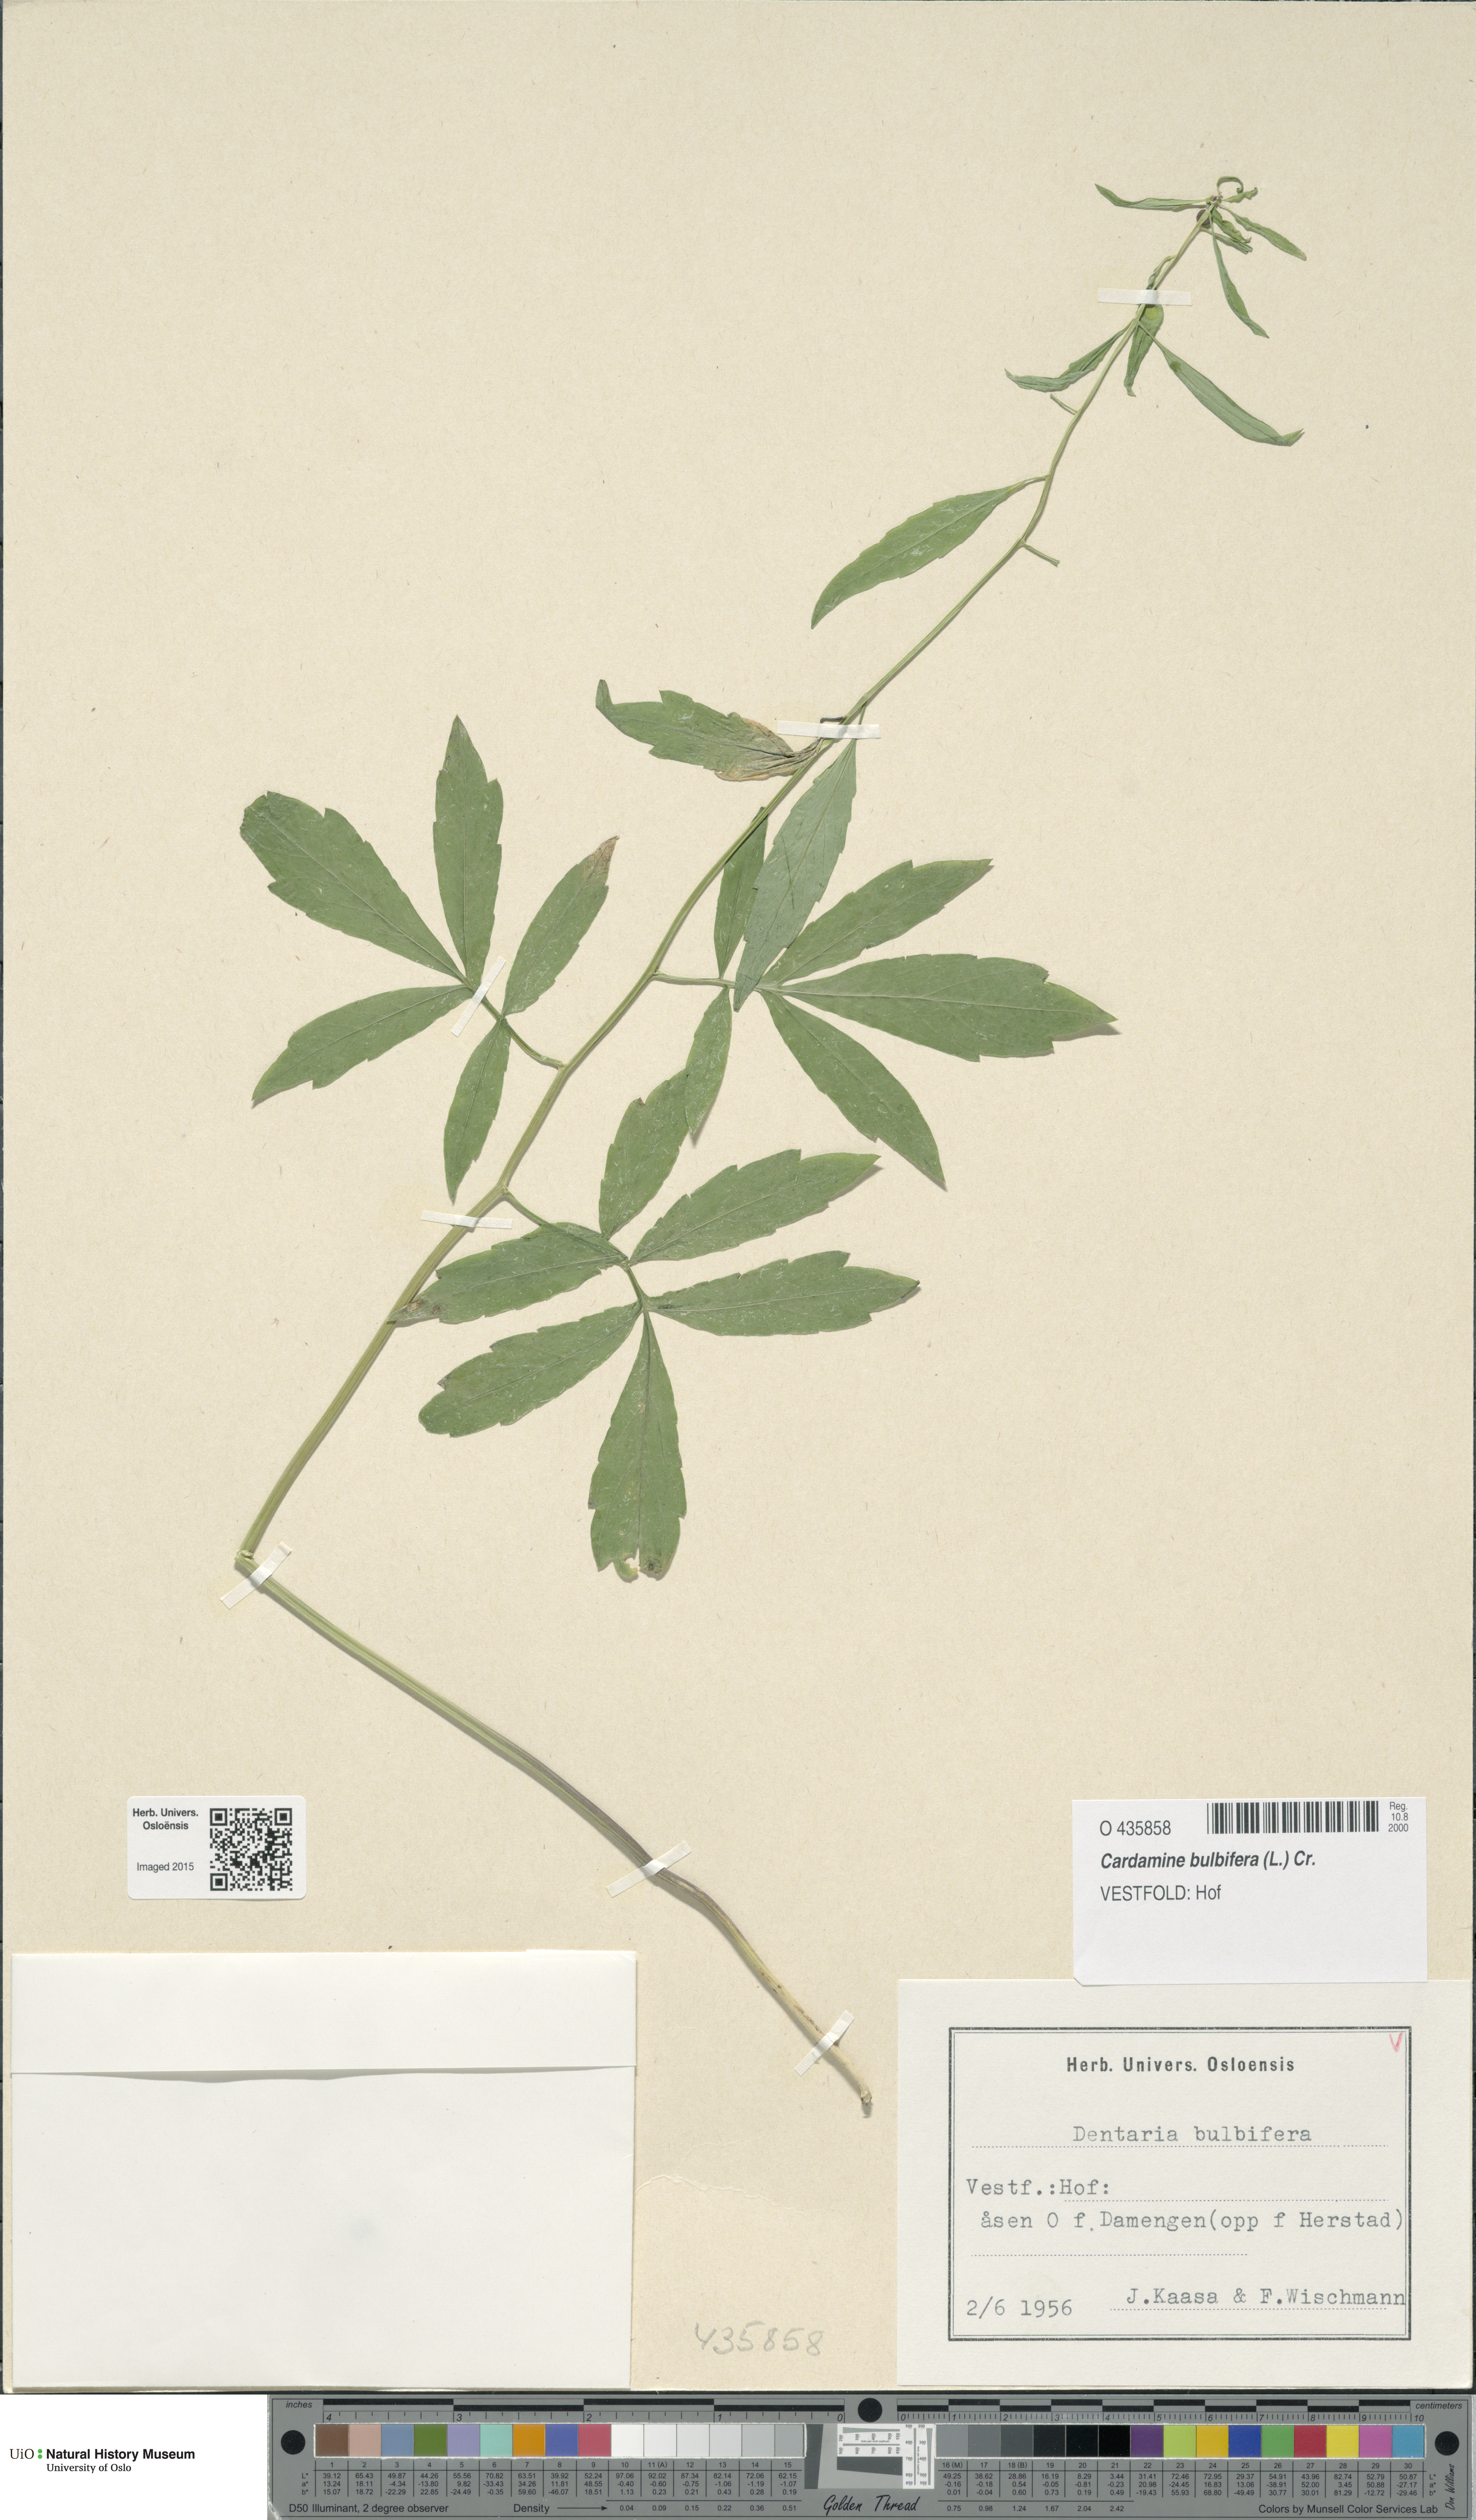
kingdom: Plantae
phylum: Tracheophyta
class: Magnoliopsida
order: Brassicales
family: Brassicaceae
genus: Cardamine
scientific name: Cardamine bulbifera
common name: Coralroot bittercress
